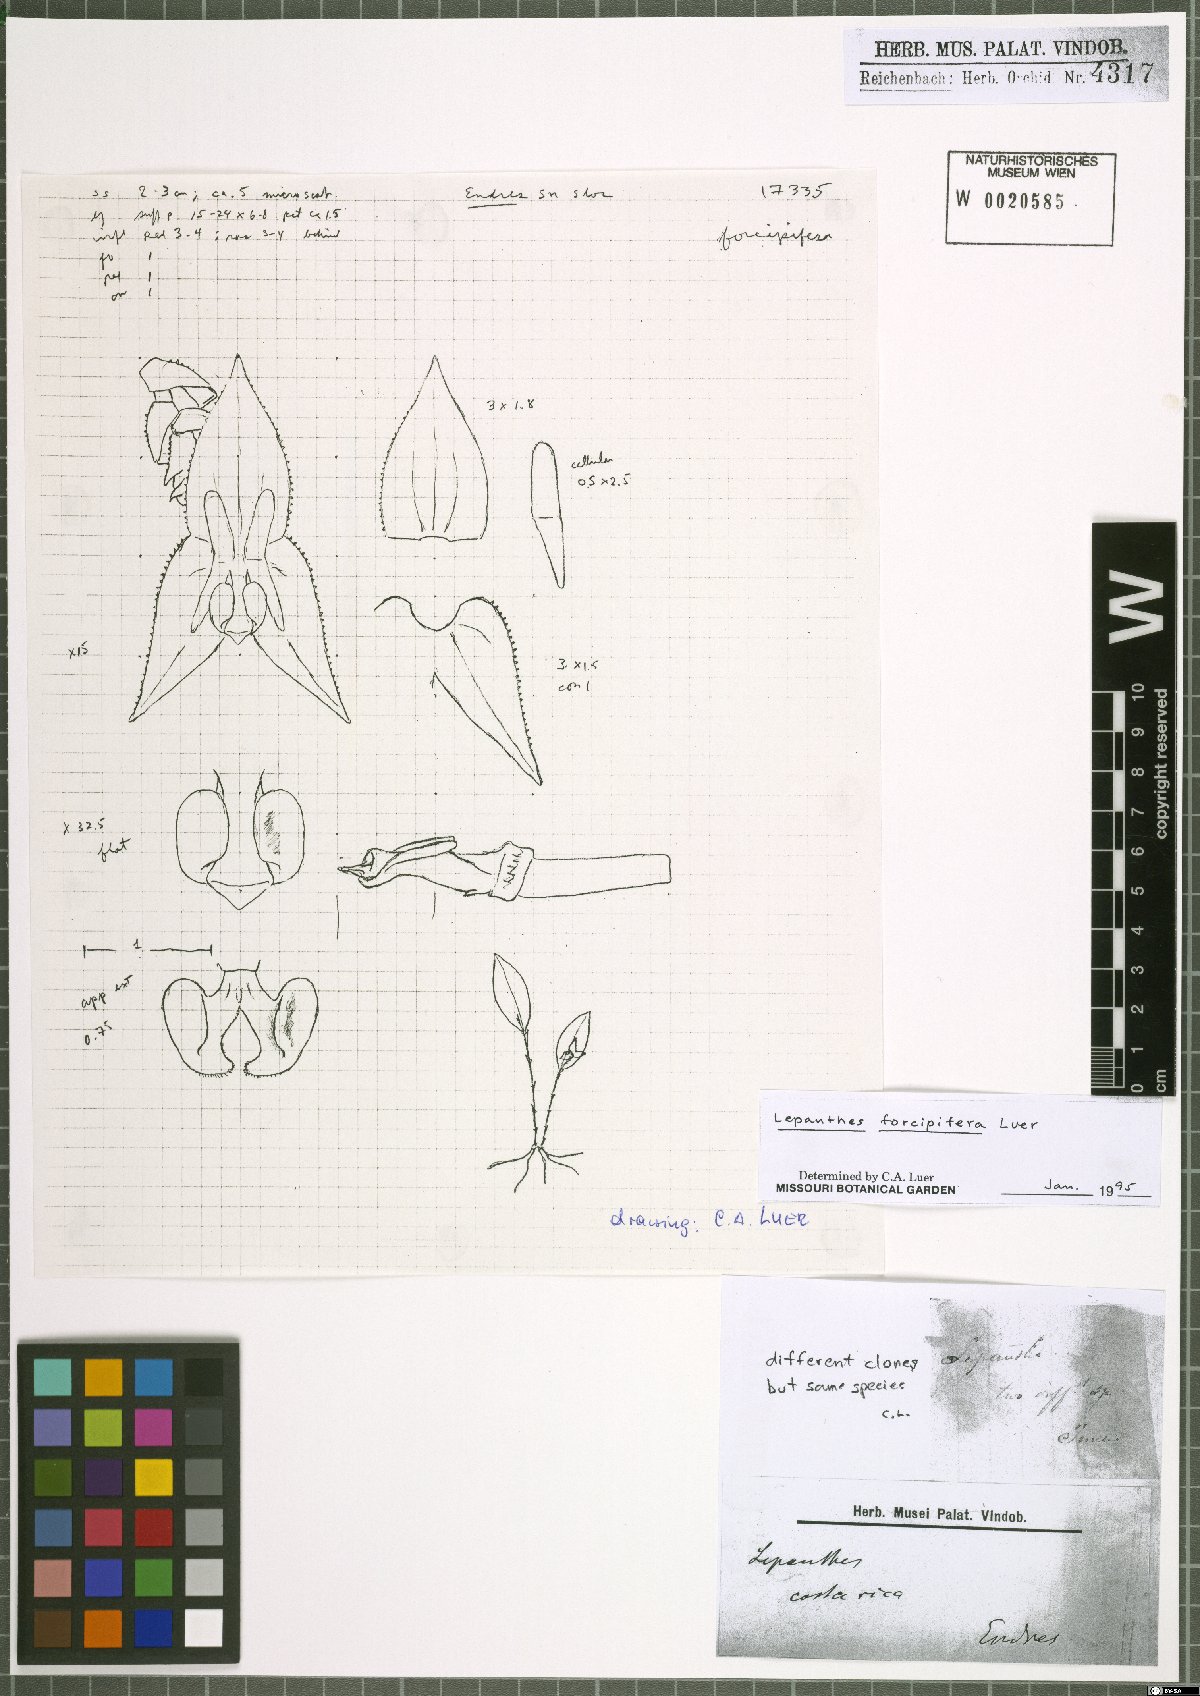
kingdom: Plantae
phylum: Tracheophyta
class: Liliopsida
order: Asparagales
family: Orchidaceae
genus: Lepanthes
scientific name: Lepanthes forcipifera
